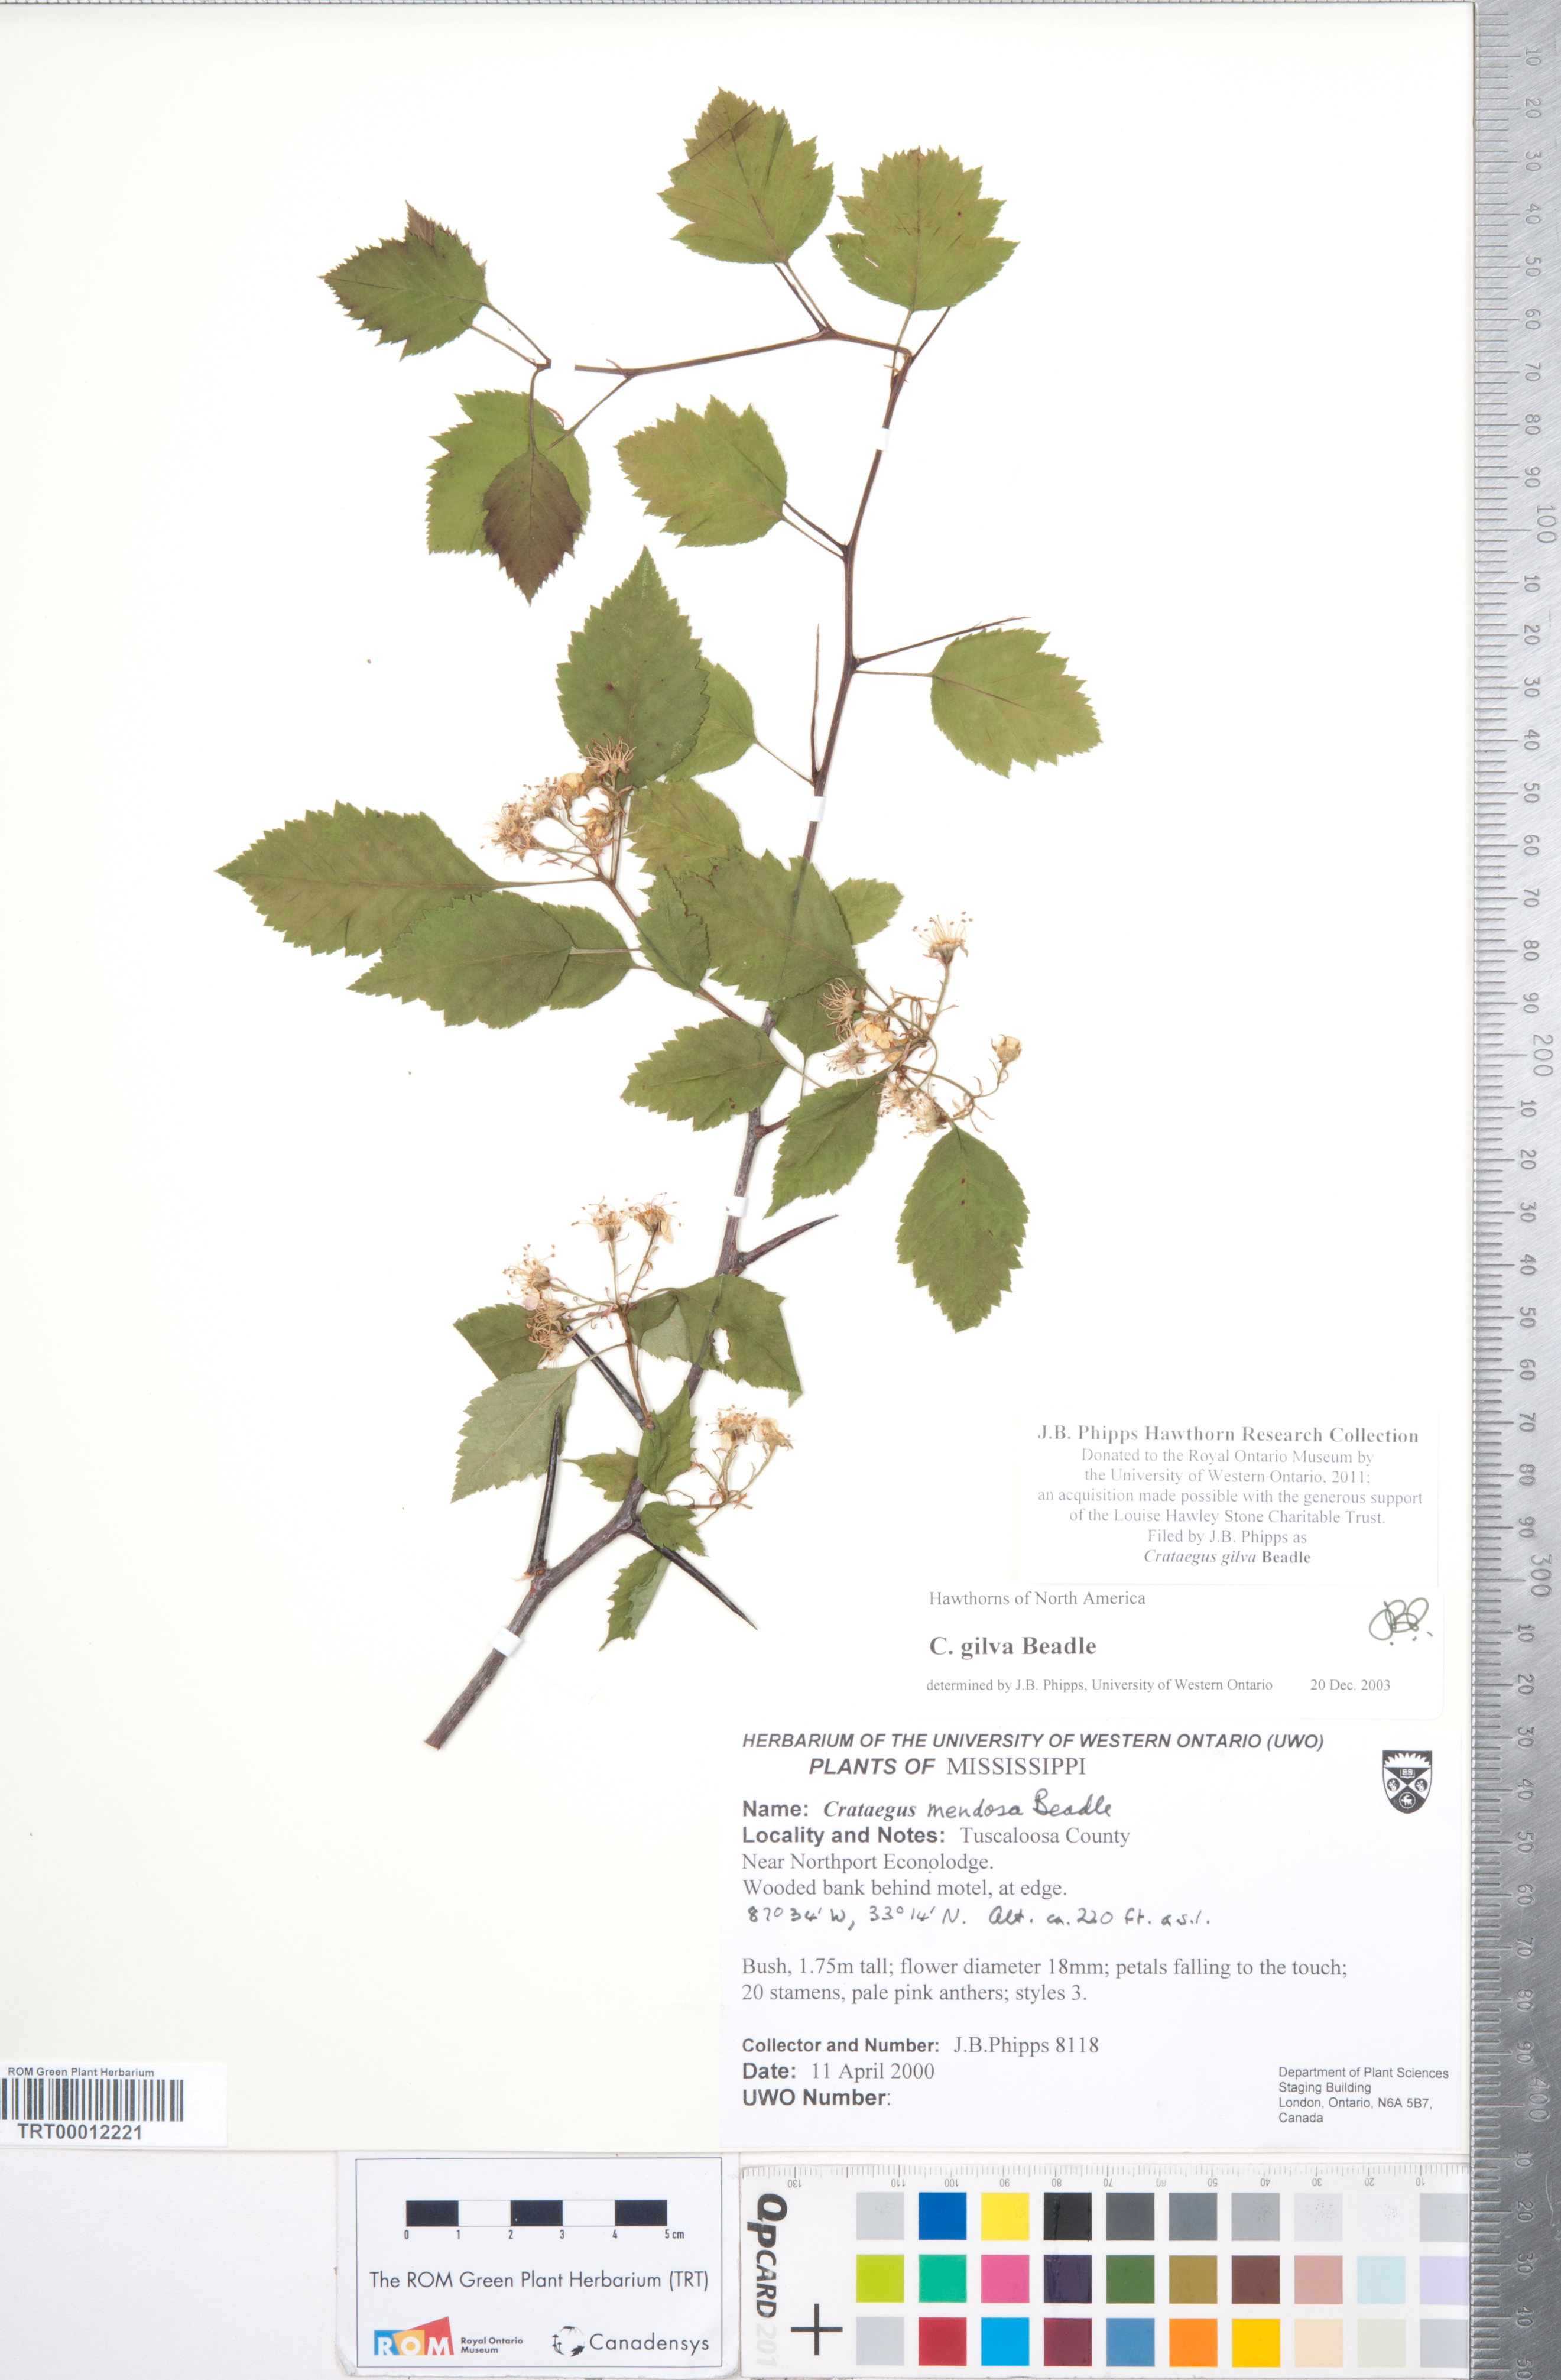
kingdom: Plantae
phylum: Tracheophyta
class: Magnoliopsida
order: Rosales
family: Rosaceae
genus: Crataegus
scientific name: Crataegus sargentii
